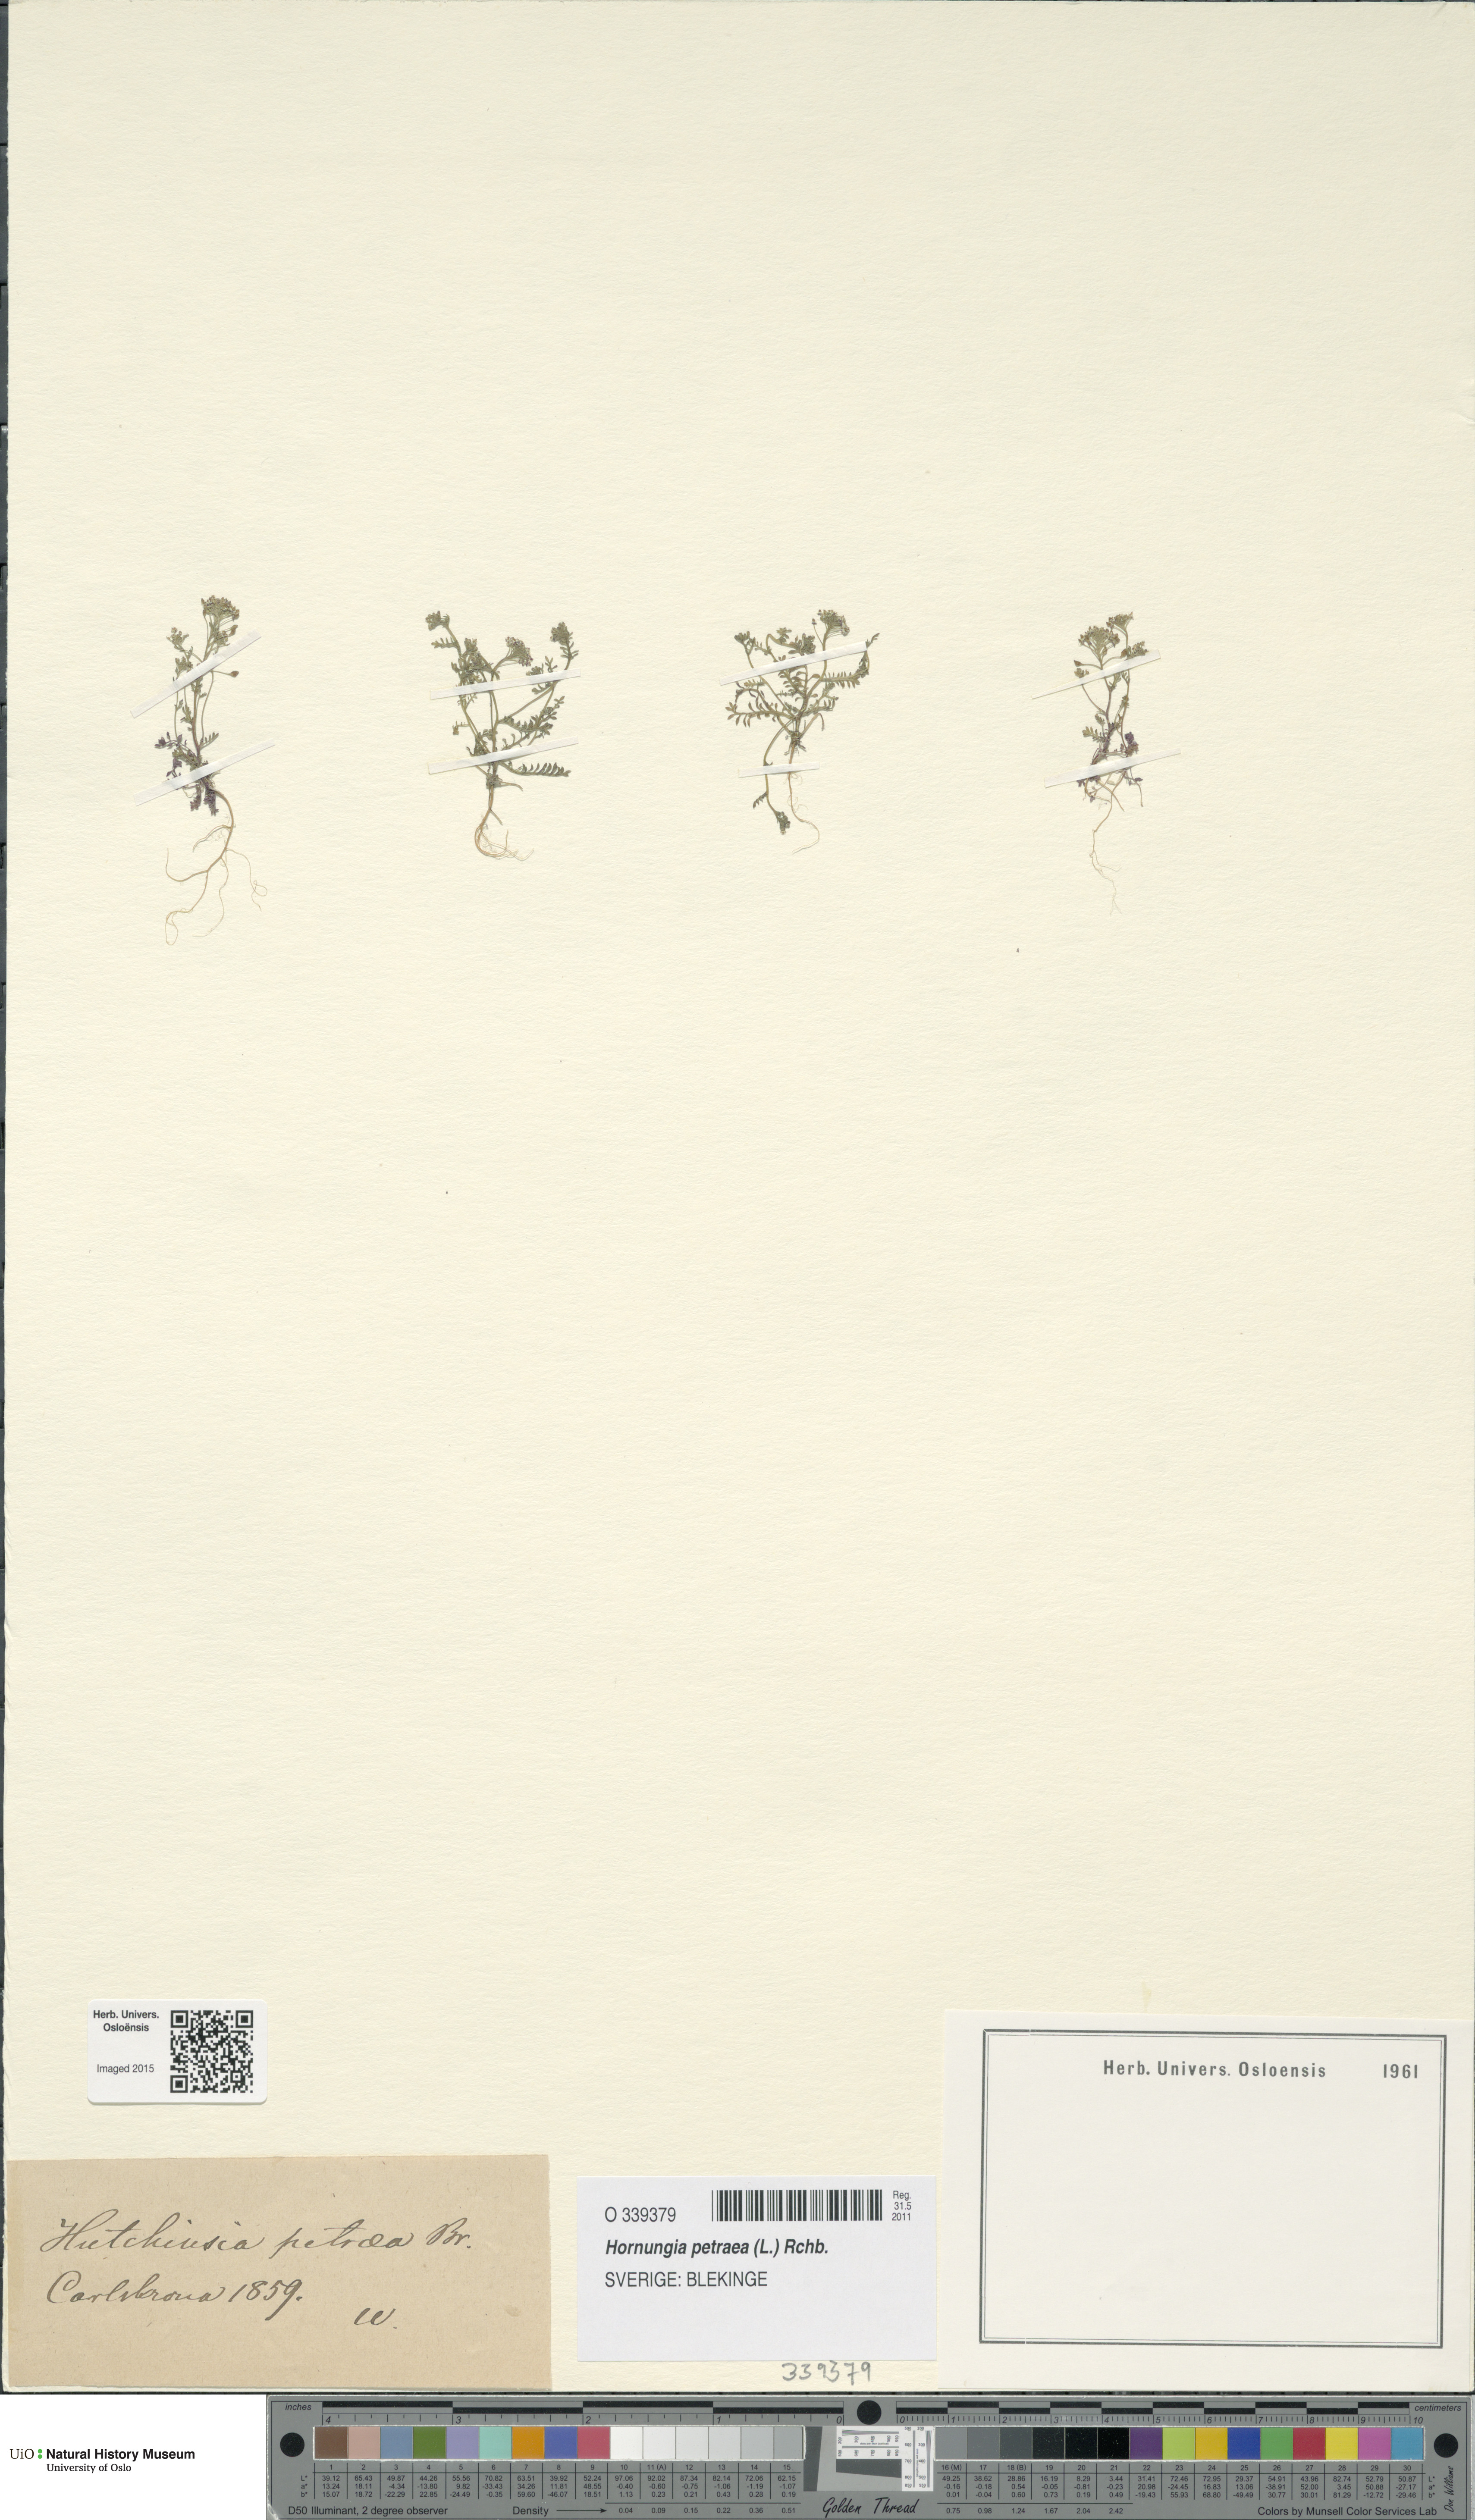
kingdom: Plantae
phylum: Tracheophyta
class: Magnoliopsida
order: Brassicales
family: Brassicaceae
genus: Hornungia
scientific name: Hornungia petraea
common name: Hutchinsia
